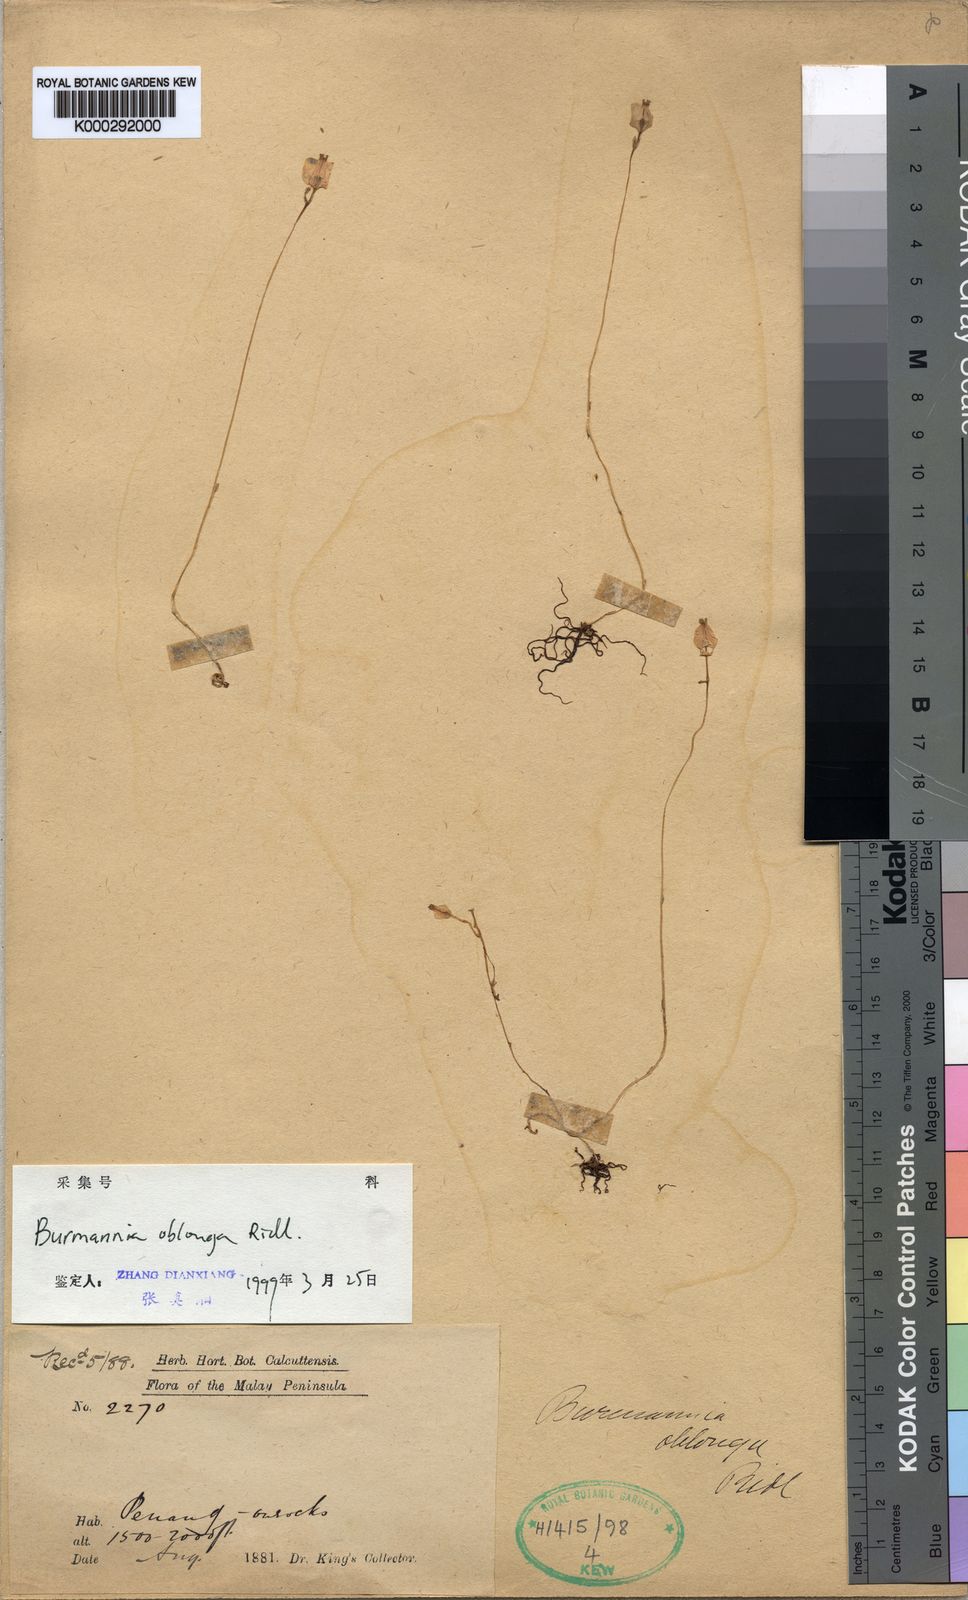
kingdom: Plantae
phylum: Tracheophyta
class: Liliopsida
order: Dioscoreales
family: Burmanniaceae
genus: Burmannia
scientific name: Burmannia oblonga
